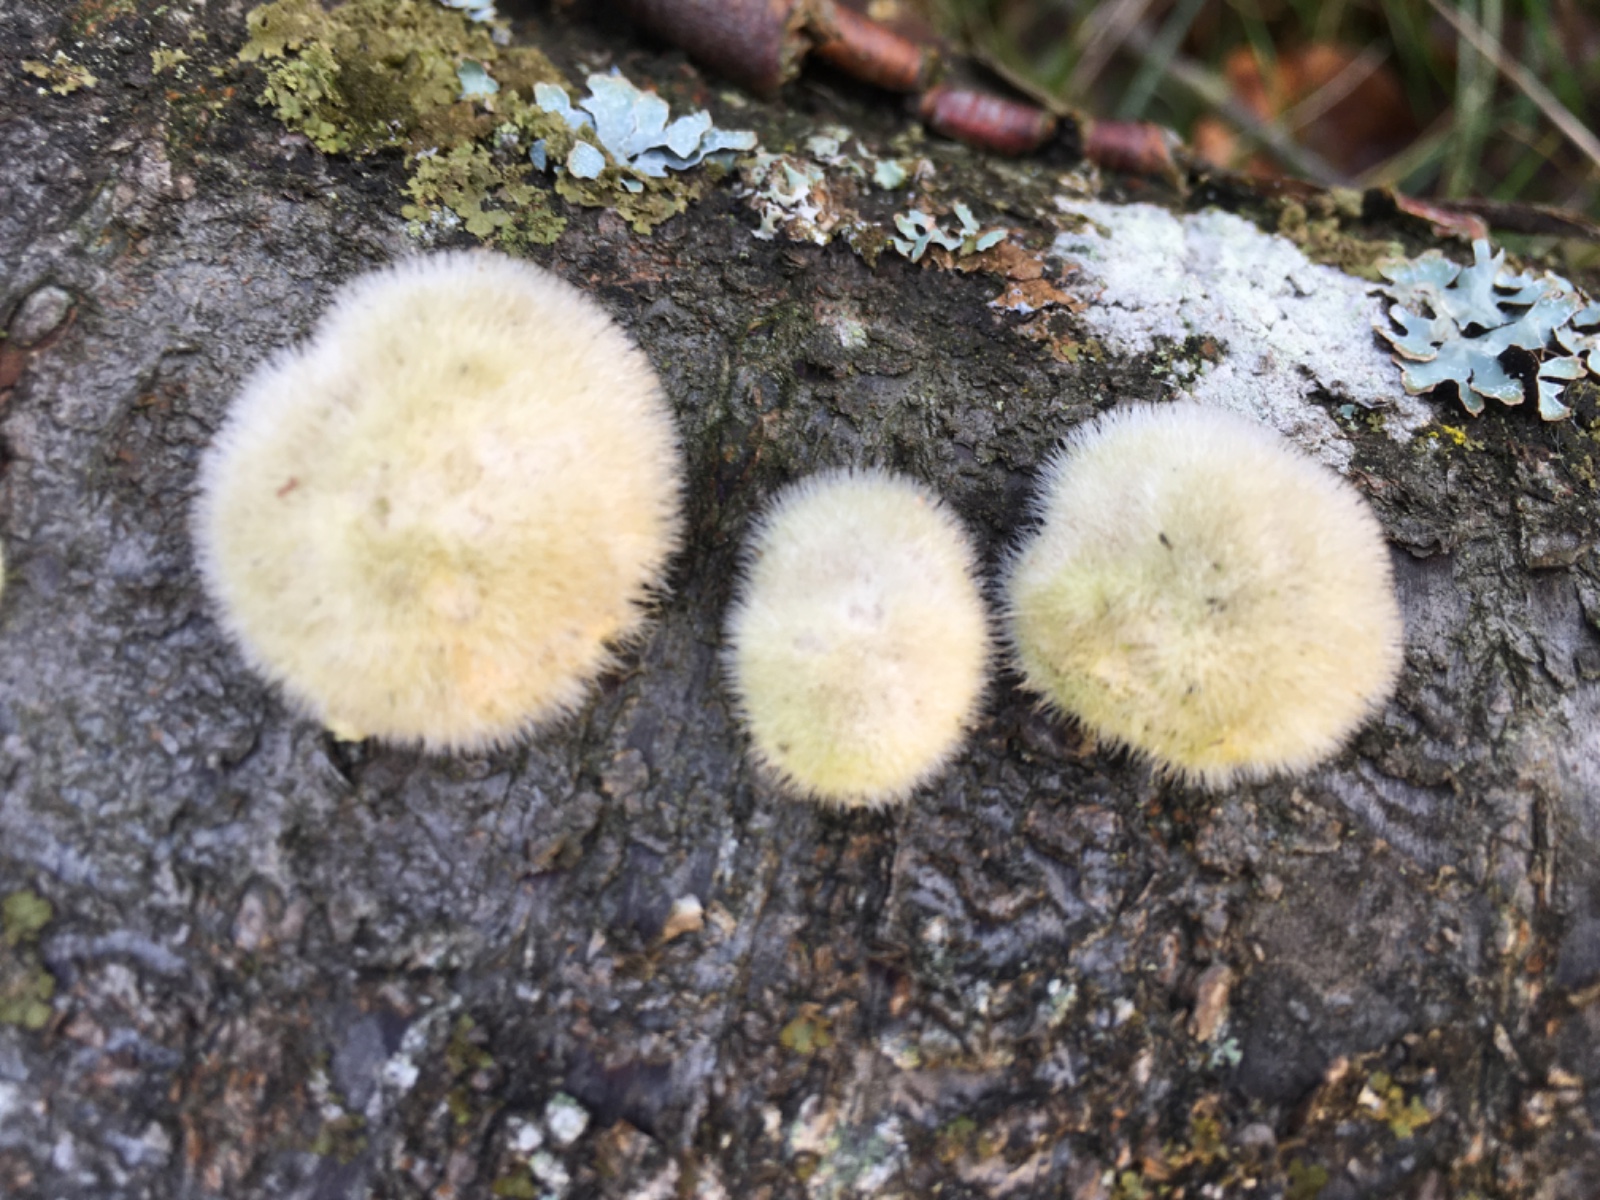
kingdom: Fungi
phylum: Basidiomycota
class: Agaricomycetes
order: Polyporales
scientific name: Polyporales
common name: poresvampordenen
